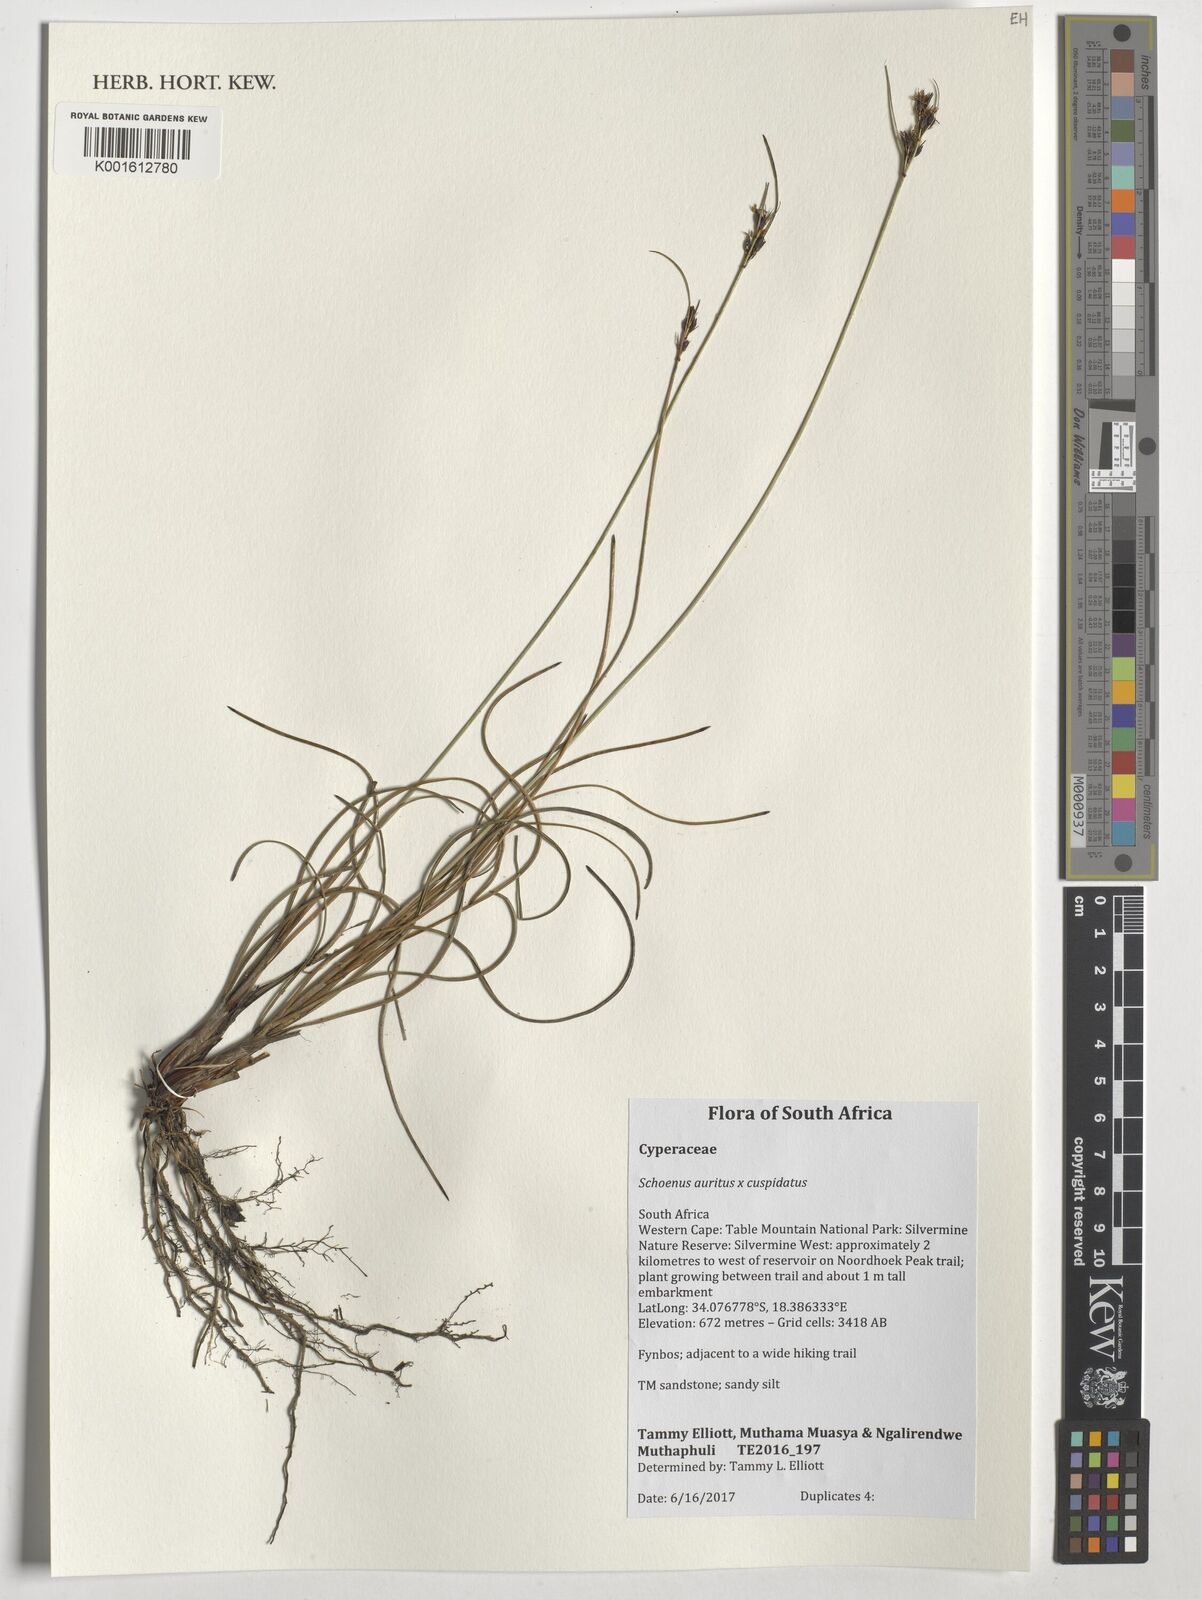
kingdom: Plantae
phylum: Tracheophyta
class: Liliopsida
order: Poales
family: Cyperaceae
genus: Schoenus
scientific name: Schoenus cuspidatus
